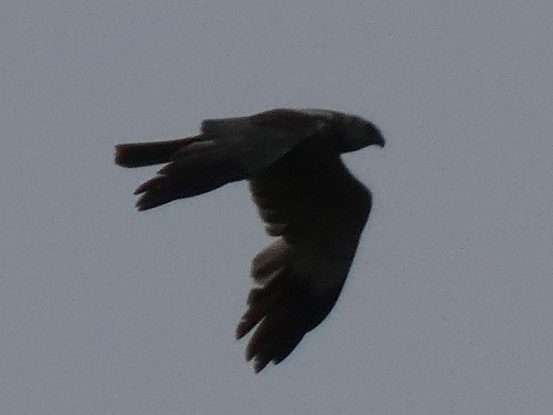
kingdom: Animalia
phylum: Chordata
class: Aves
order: Accipitriformes
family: Accipitridae
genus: Circus
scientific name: Circus aeruginosus
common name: Rørhøg
